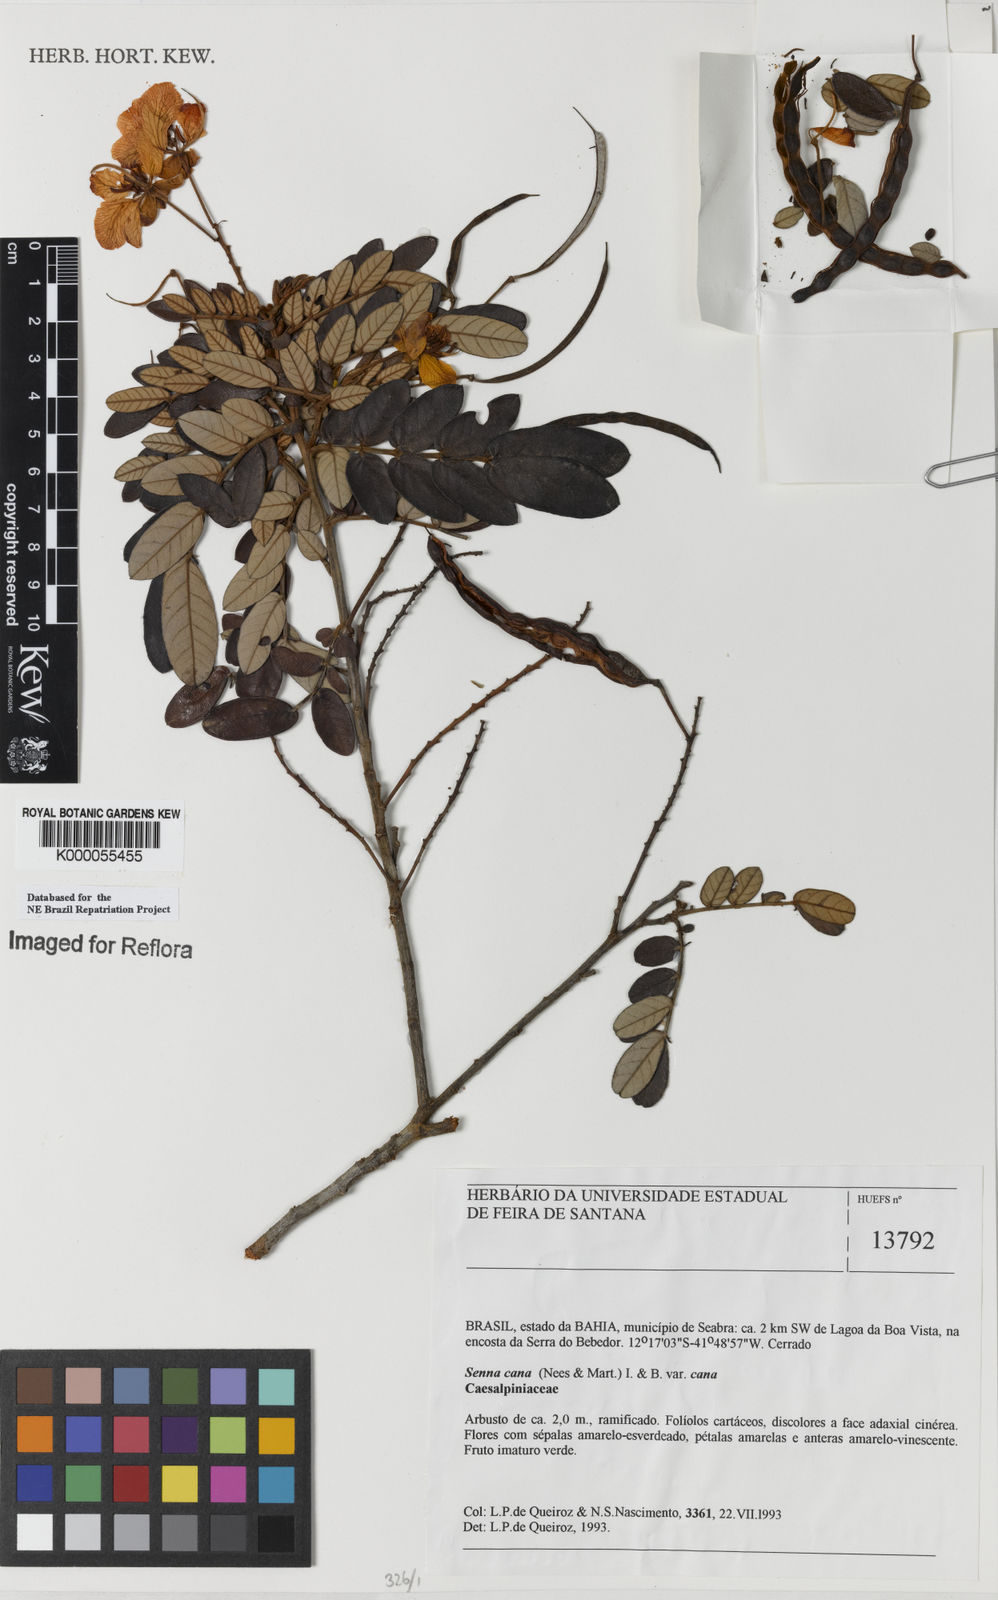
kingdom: Plantae
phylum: Tracheophyta
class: Magnoliopsida
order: Fabales
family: Fabaceae
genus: Senna
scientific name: Senna cana
